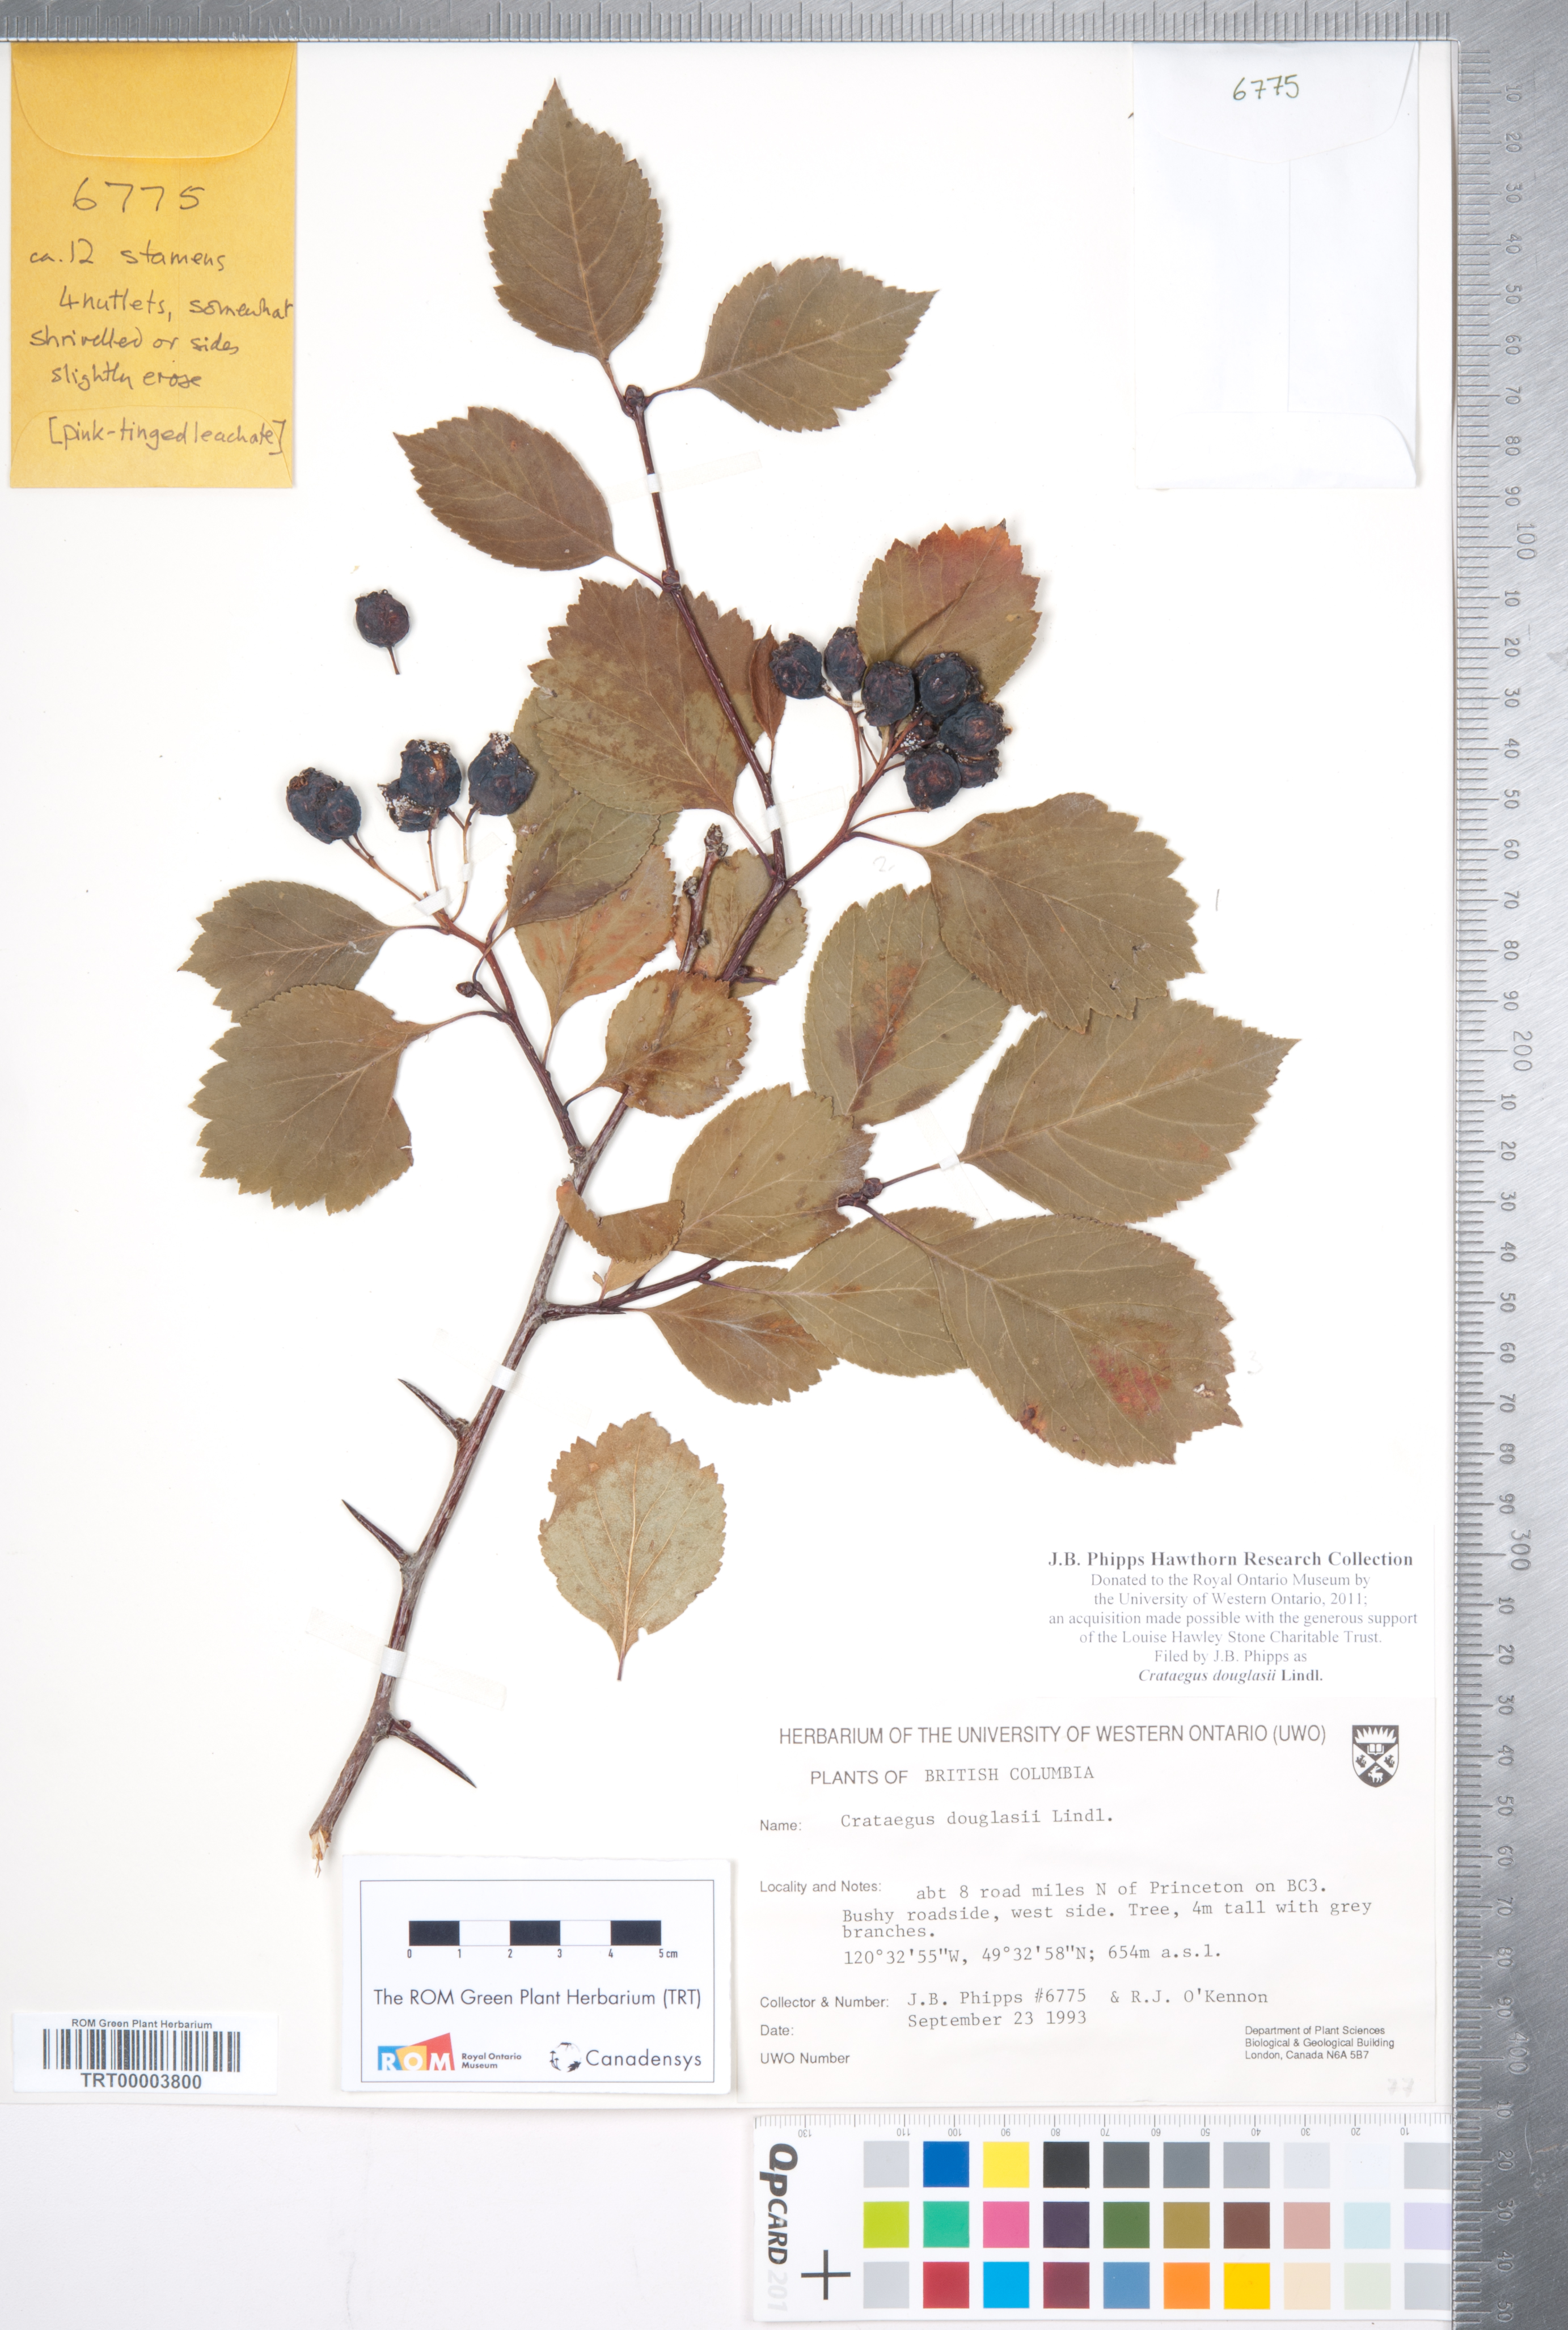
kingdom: Plantae
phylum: Tracheophyta
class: Magnoliopsida
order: Rosales
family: Rosaceae
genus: Crataegus
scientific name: Crataegus douglasii
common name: Black hawthorn
